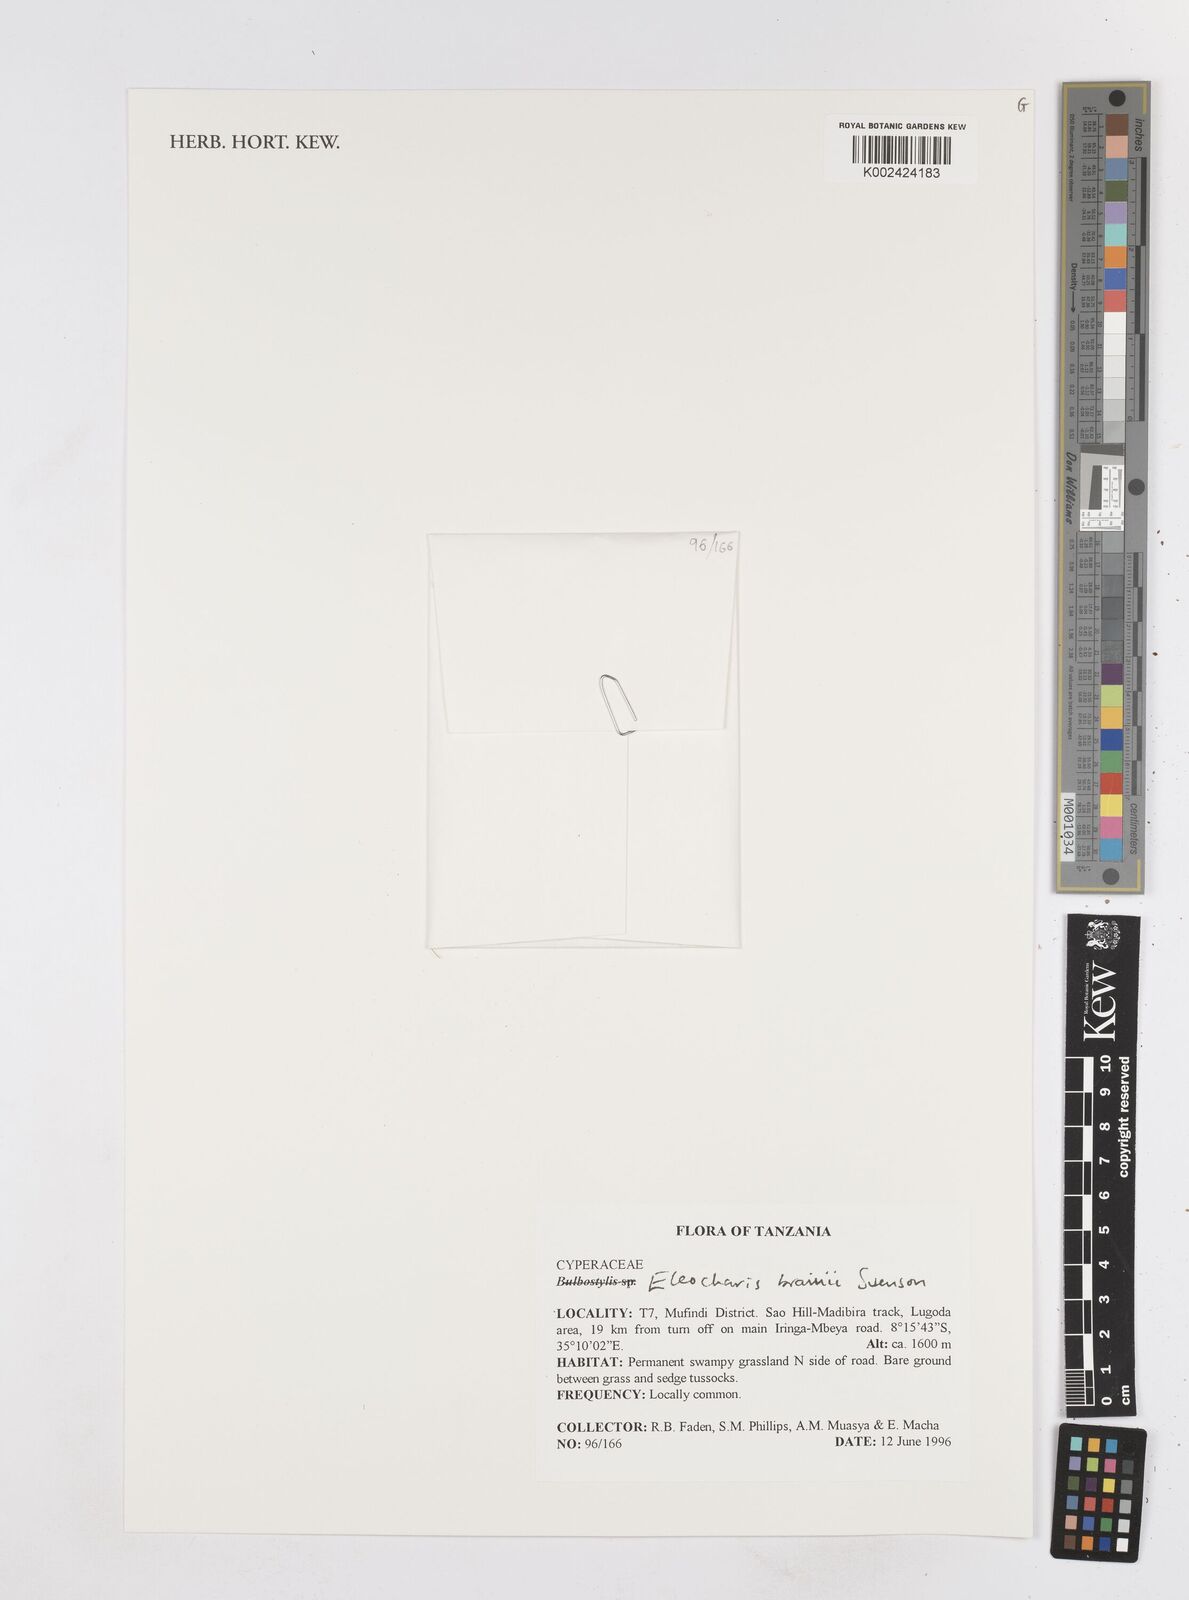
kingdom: Plantae
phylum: Tracheophyta
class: Liliopsida
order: Poales
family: Cyperaceae
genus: Eleocharis
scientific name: Eleocharis brainii
